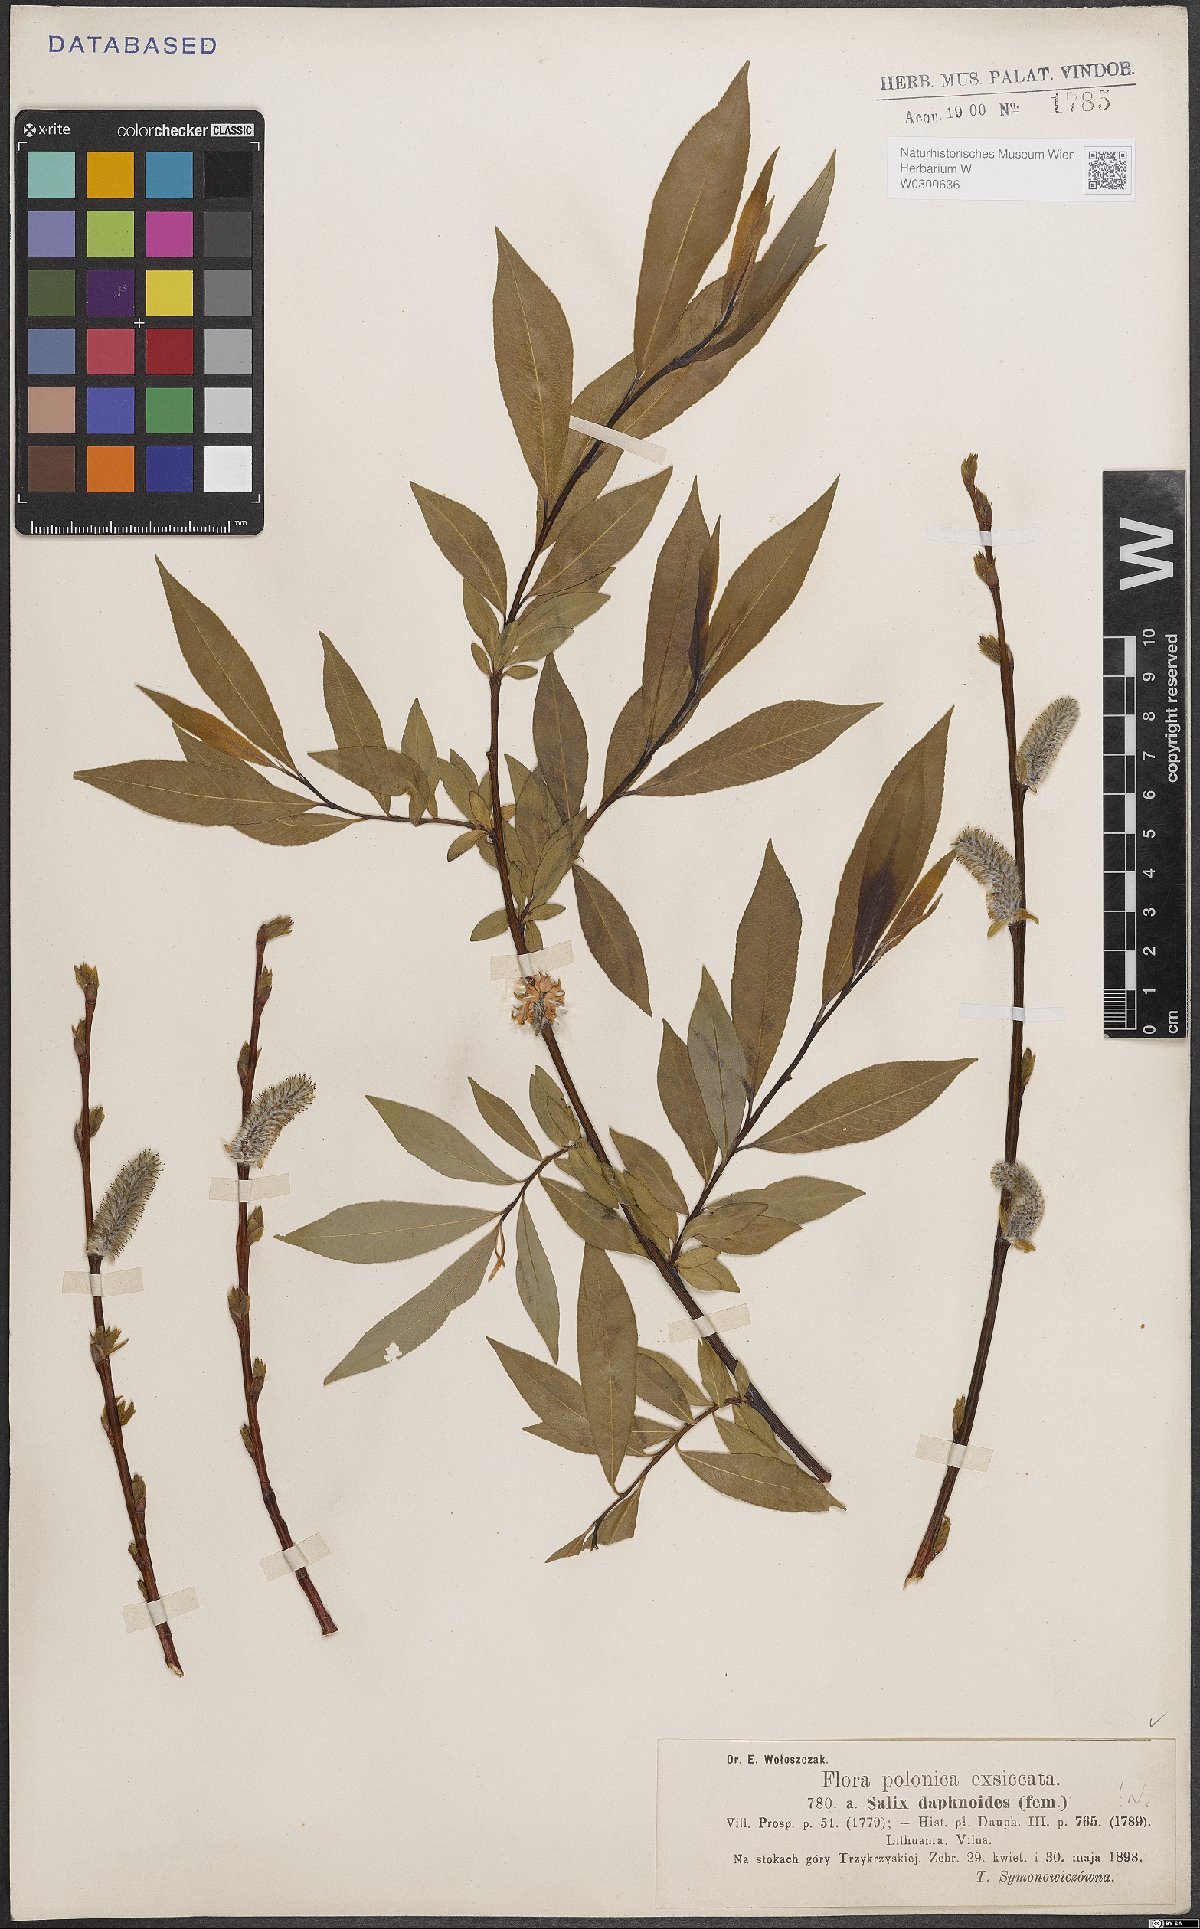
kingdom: Plantae
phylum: Tracheophyta
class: Magnoliopsida
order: Malpighiales
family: Salicaceae
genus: Salix
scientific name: Salix daphnoides
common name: European violet-willow
